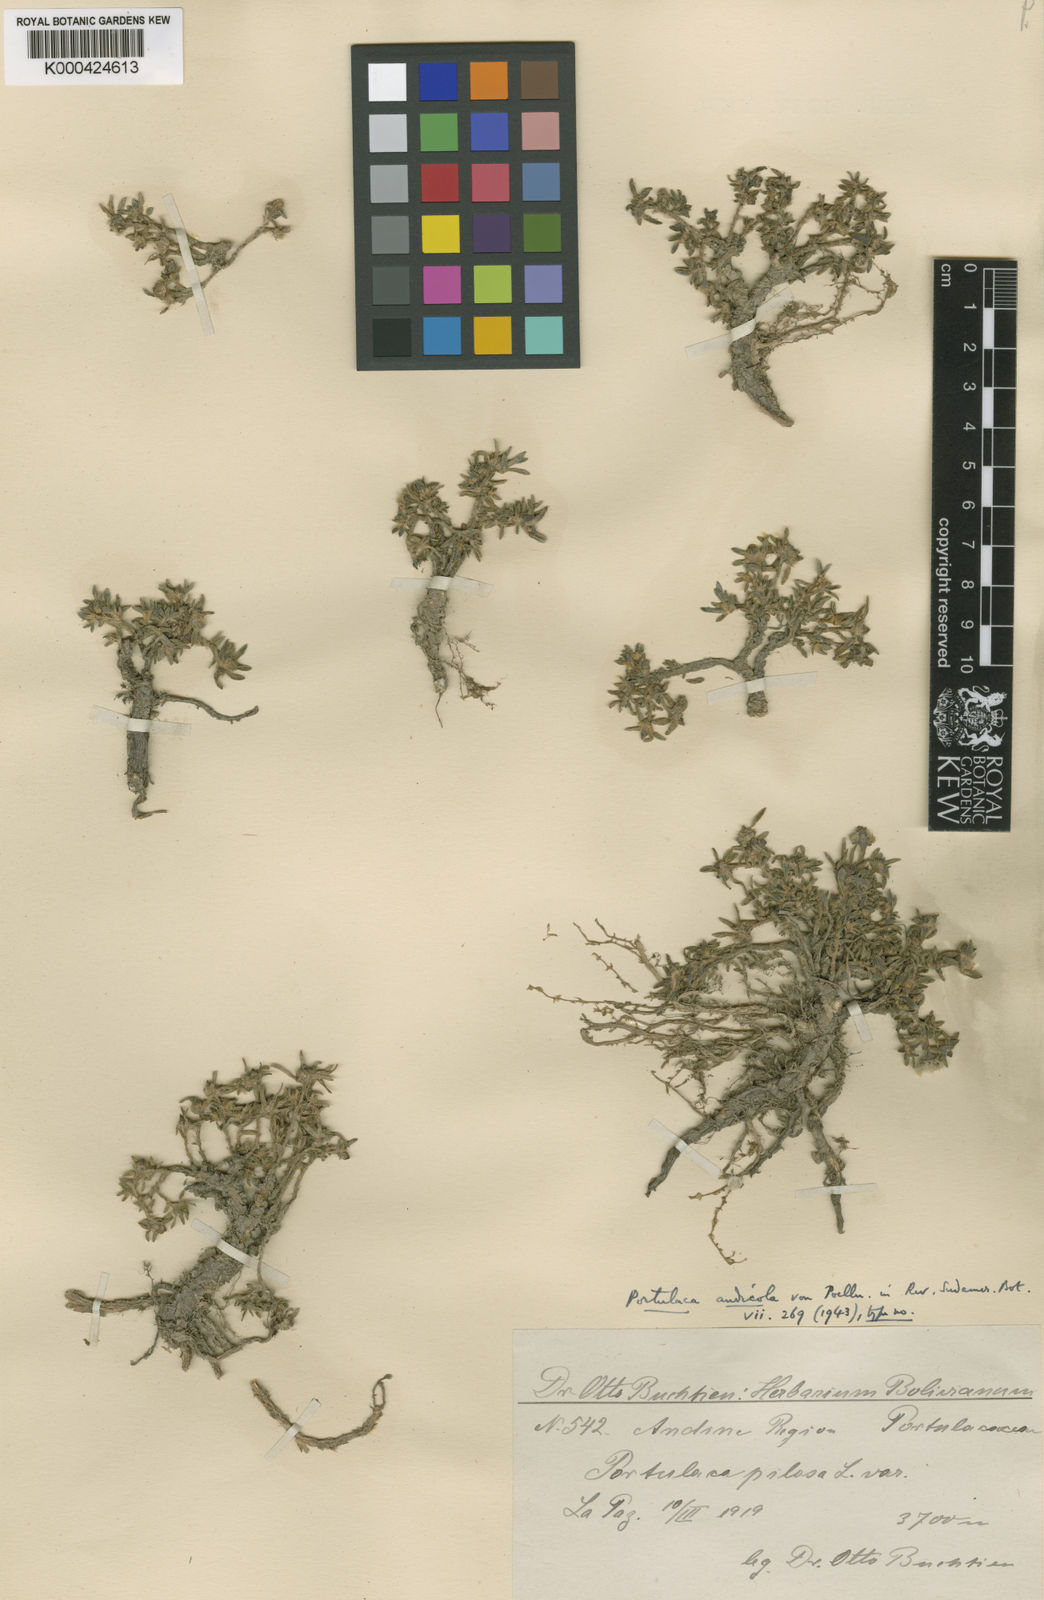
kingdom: Plantae
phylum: Tracheophyta
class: Magnoliopsida
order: Caryophyllales
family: Portulacaceae
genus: Portulaca
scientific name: Portulaca perennis
